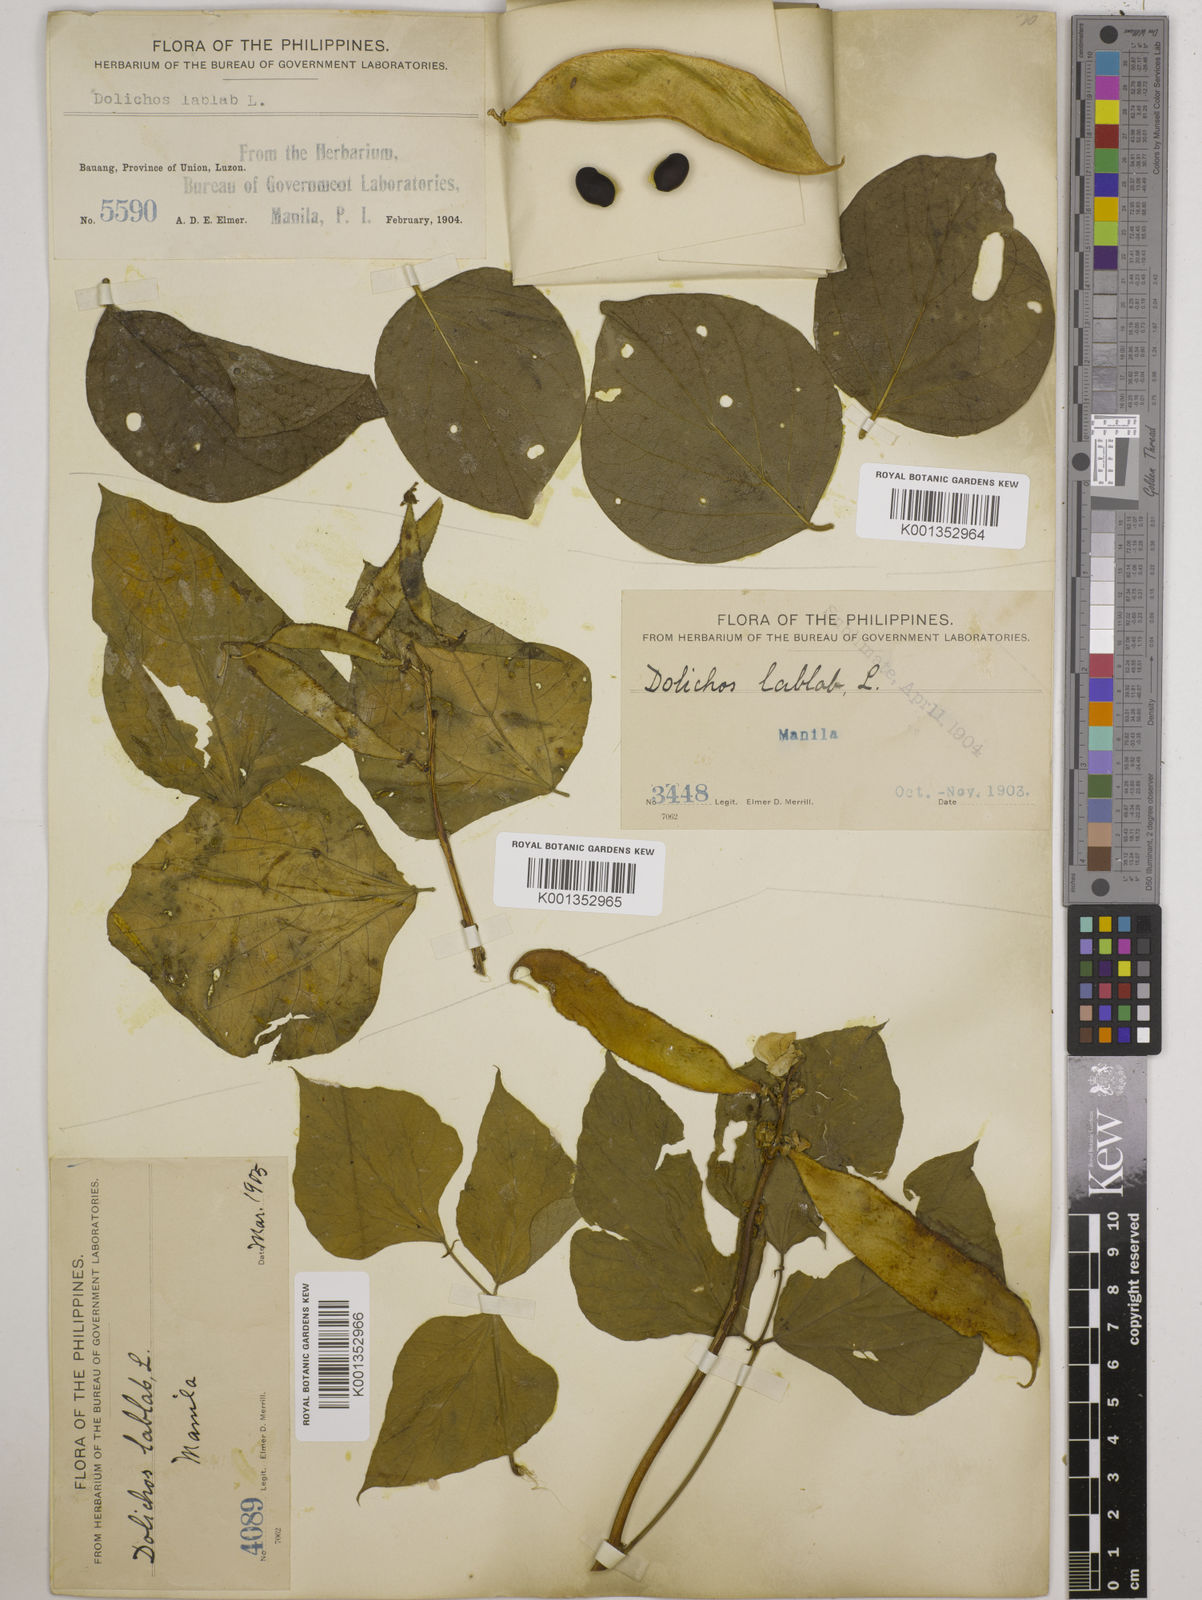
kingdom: Plantae
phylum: Tracheophyta
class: Magnoliopsida
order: Fabales
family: Fabaceae
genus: Lablab
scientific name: Lablab purpureus
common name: Lablab-bean
